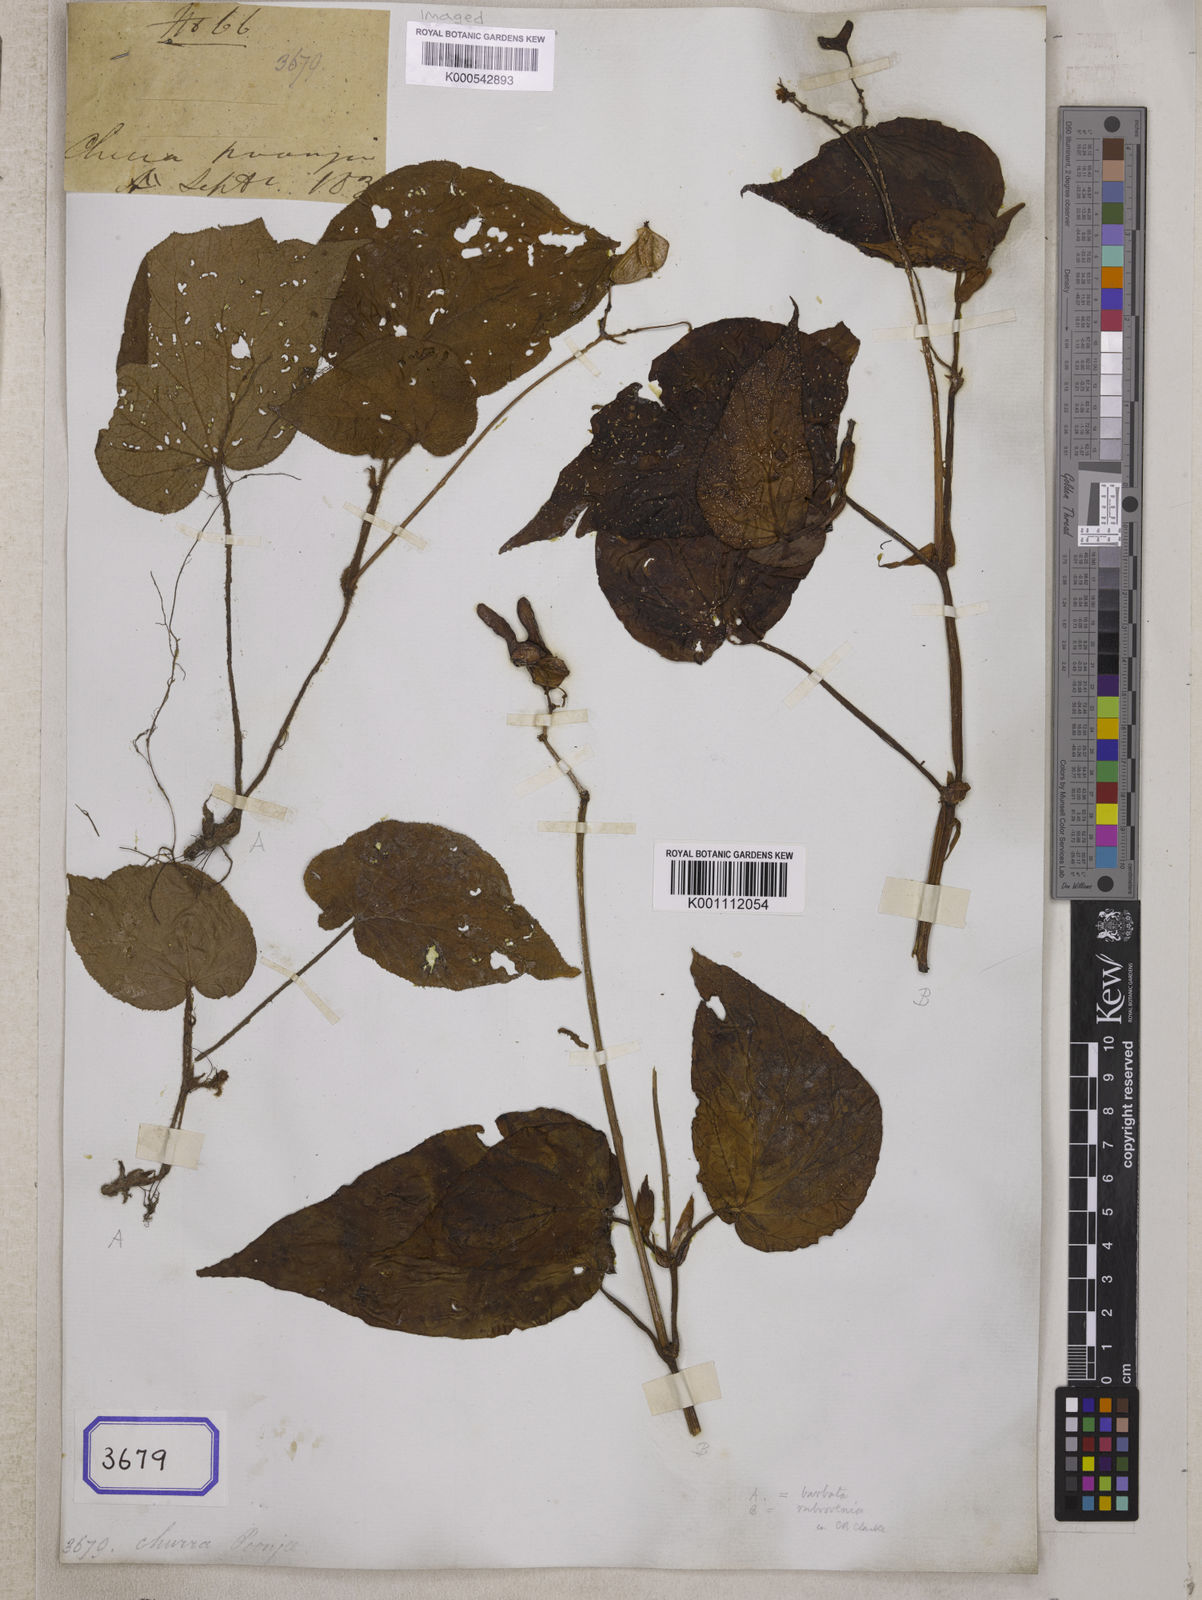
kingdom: Plantae
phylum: Tracheophyta
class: Magnoliopsida
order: Cucurbitales
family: Begoniaceae
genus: Begonia
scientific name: Begonia
